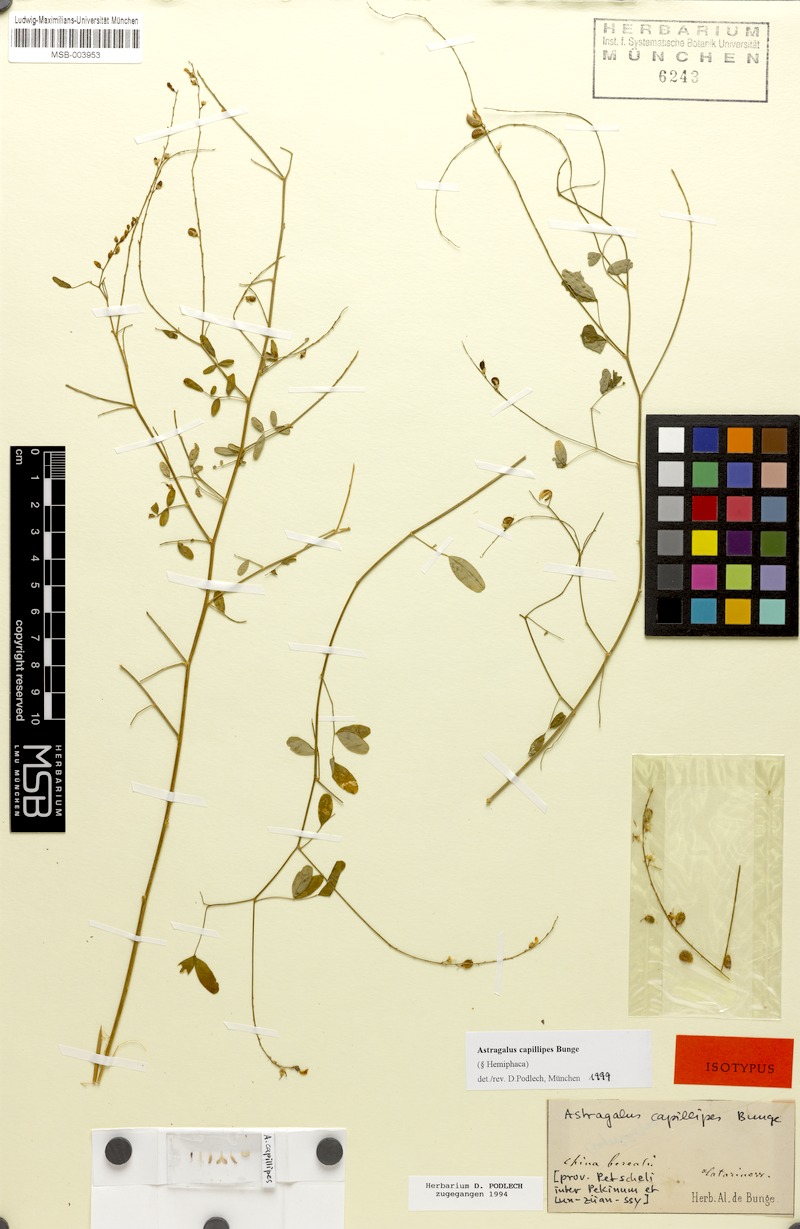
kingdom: Plantae
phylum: Tracheophyta
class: Magnoliopsida
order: Fabales
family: Fabaceae
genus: Astragalus
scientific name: Astragalus capillipes
